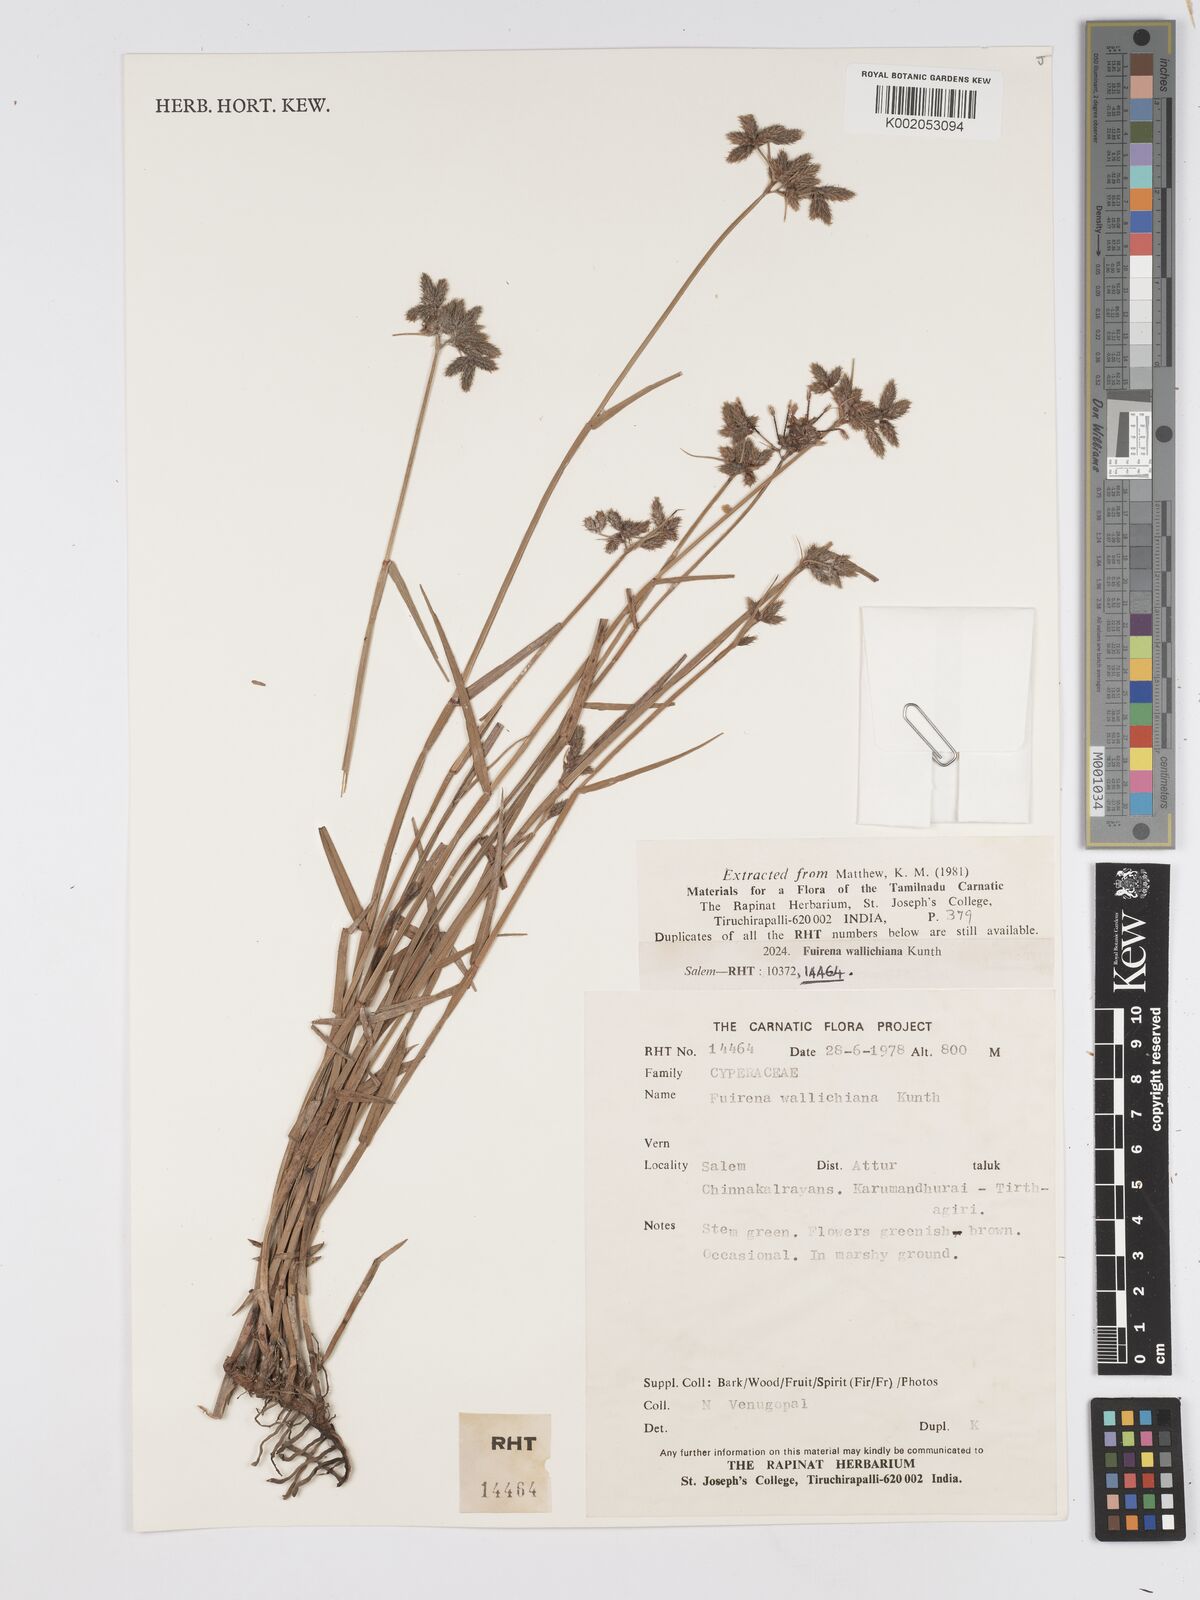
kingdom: Plantae
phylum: Tracheophyta
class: Liliopsida
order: Poales
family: Cyperaceae
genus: Fuirena
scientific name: Fuirena cuspidata
